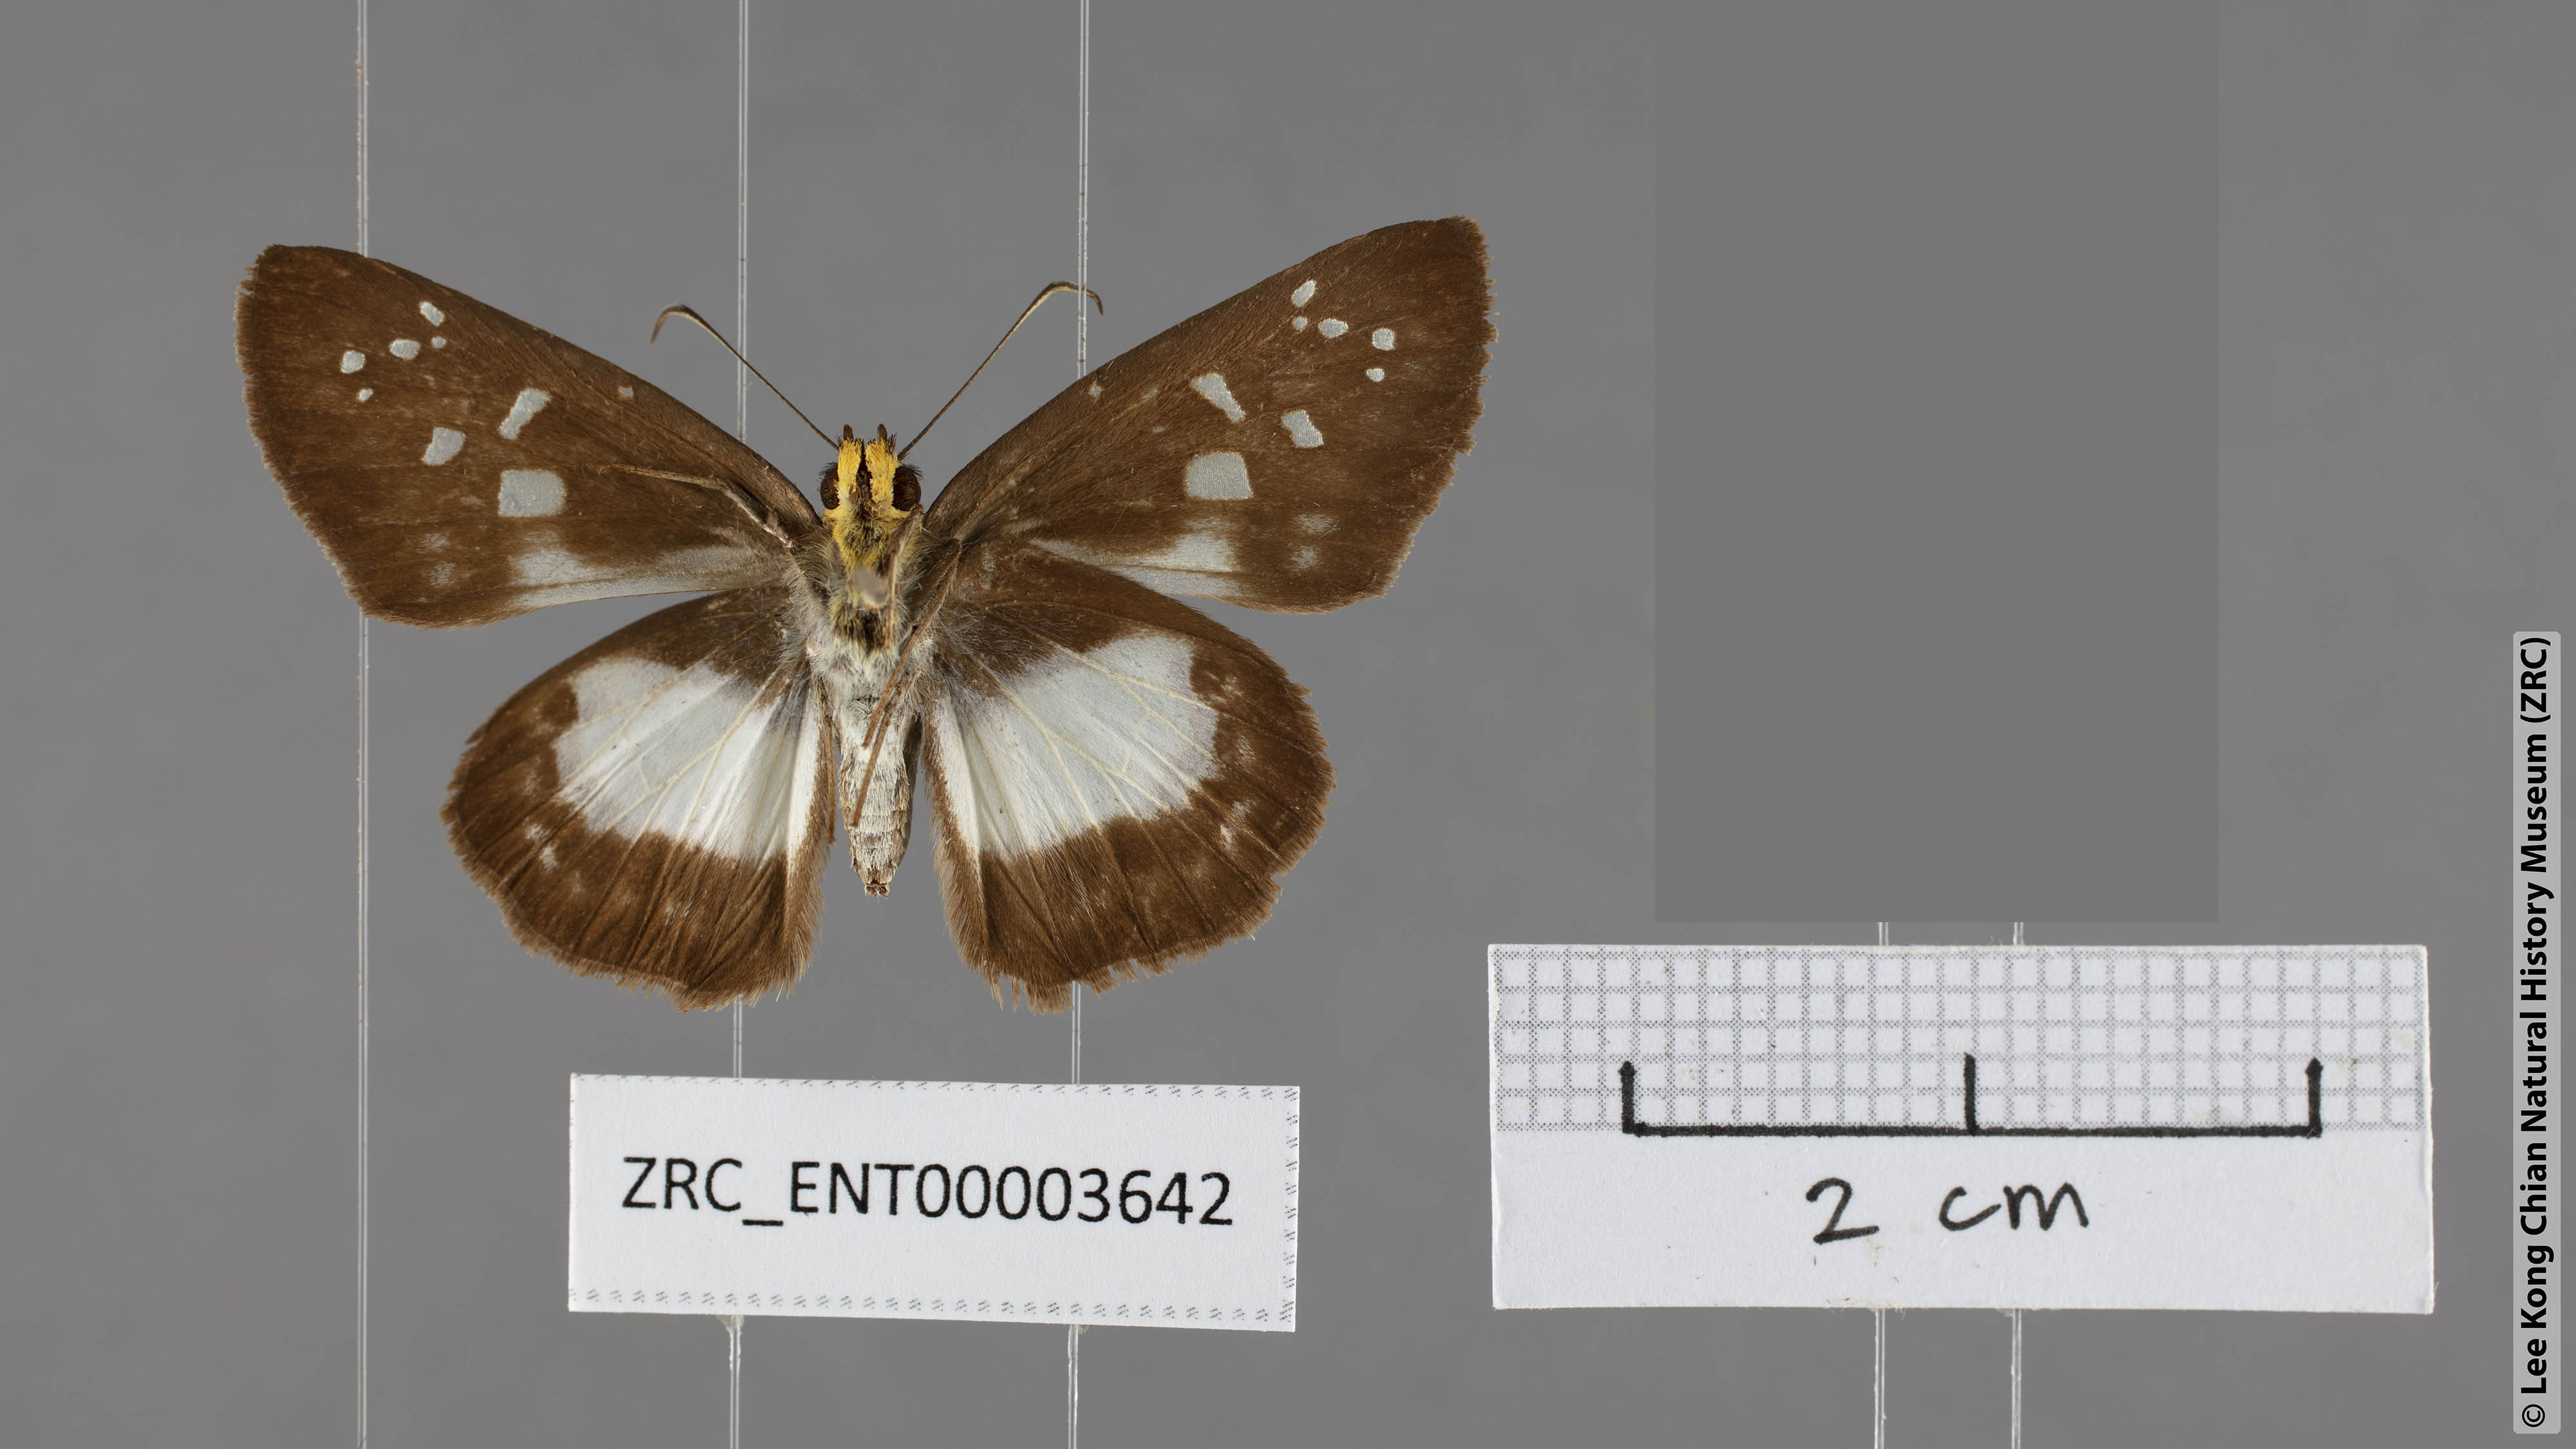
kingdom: Animalia
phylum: Arthropoda
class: Insecta
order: Lepidoptera
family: Hesperiidae
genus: Daimio
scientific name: Daimio
